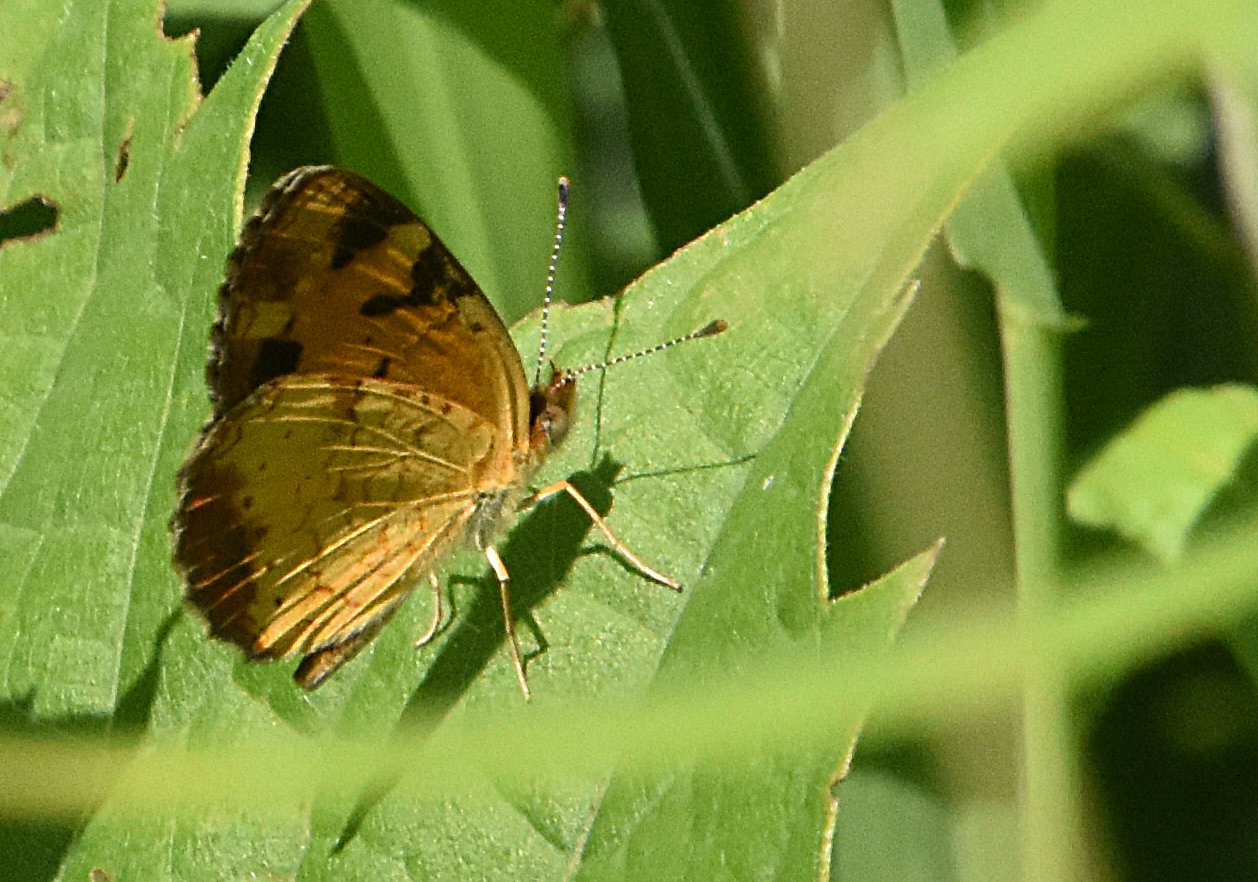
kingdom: Animalia
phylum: Arthropoda
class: Insecta
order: Lepidoptera
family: Nymphalidae
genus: Phyciodes
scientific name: Phyciodes tharos
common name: Northern Crescent
